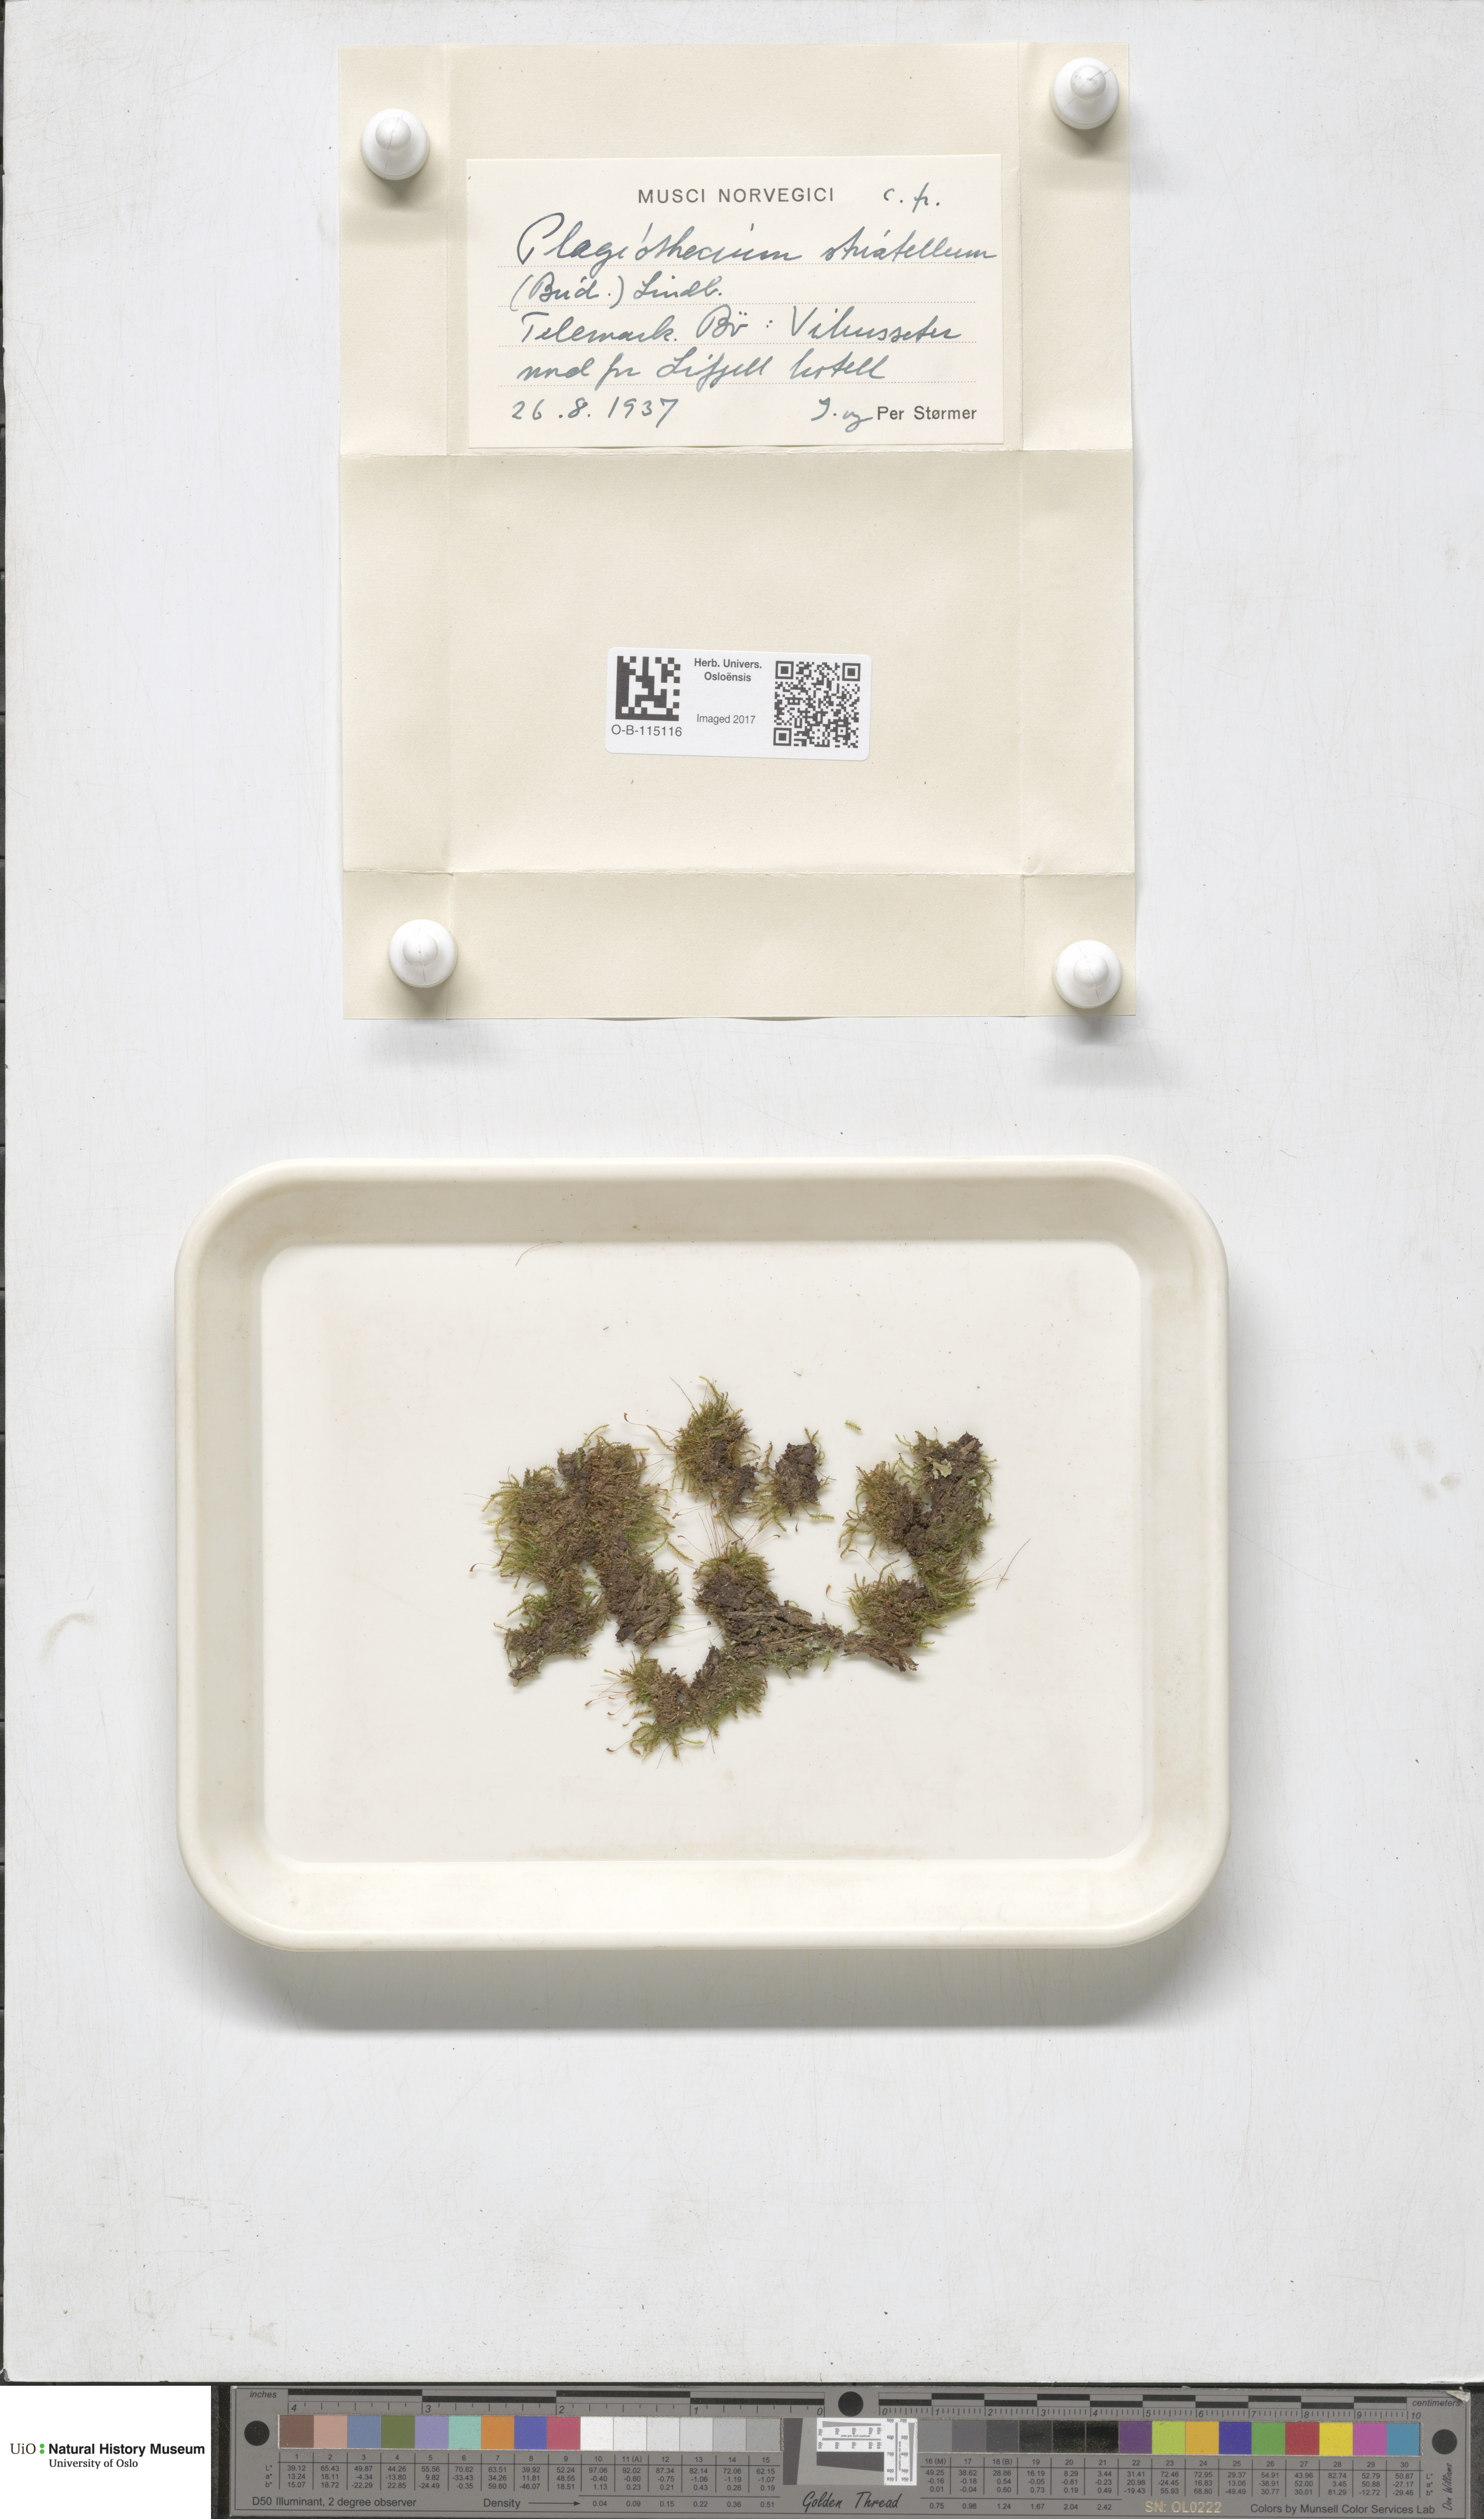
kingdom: Plantae
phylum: Bryophyta
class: Bryopsida
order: Hypnales
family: Plagiotheciaceae
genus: Herzogiella
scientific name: Herzogiella striatella
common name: Muhlenbeck's feather-moss
